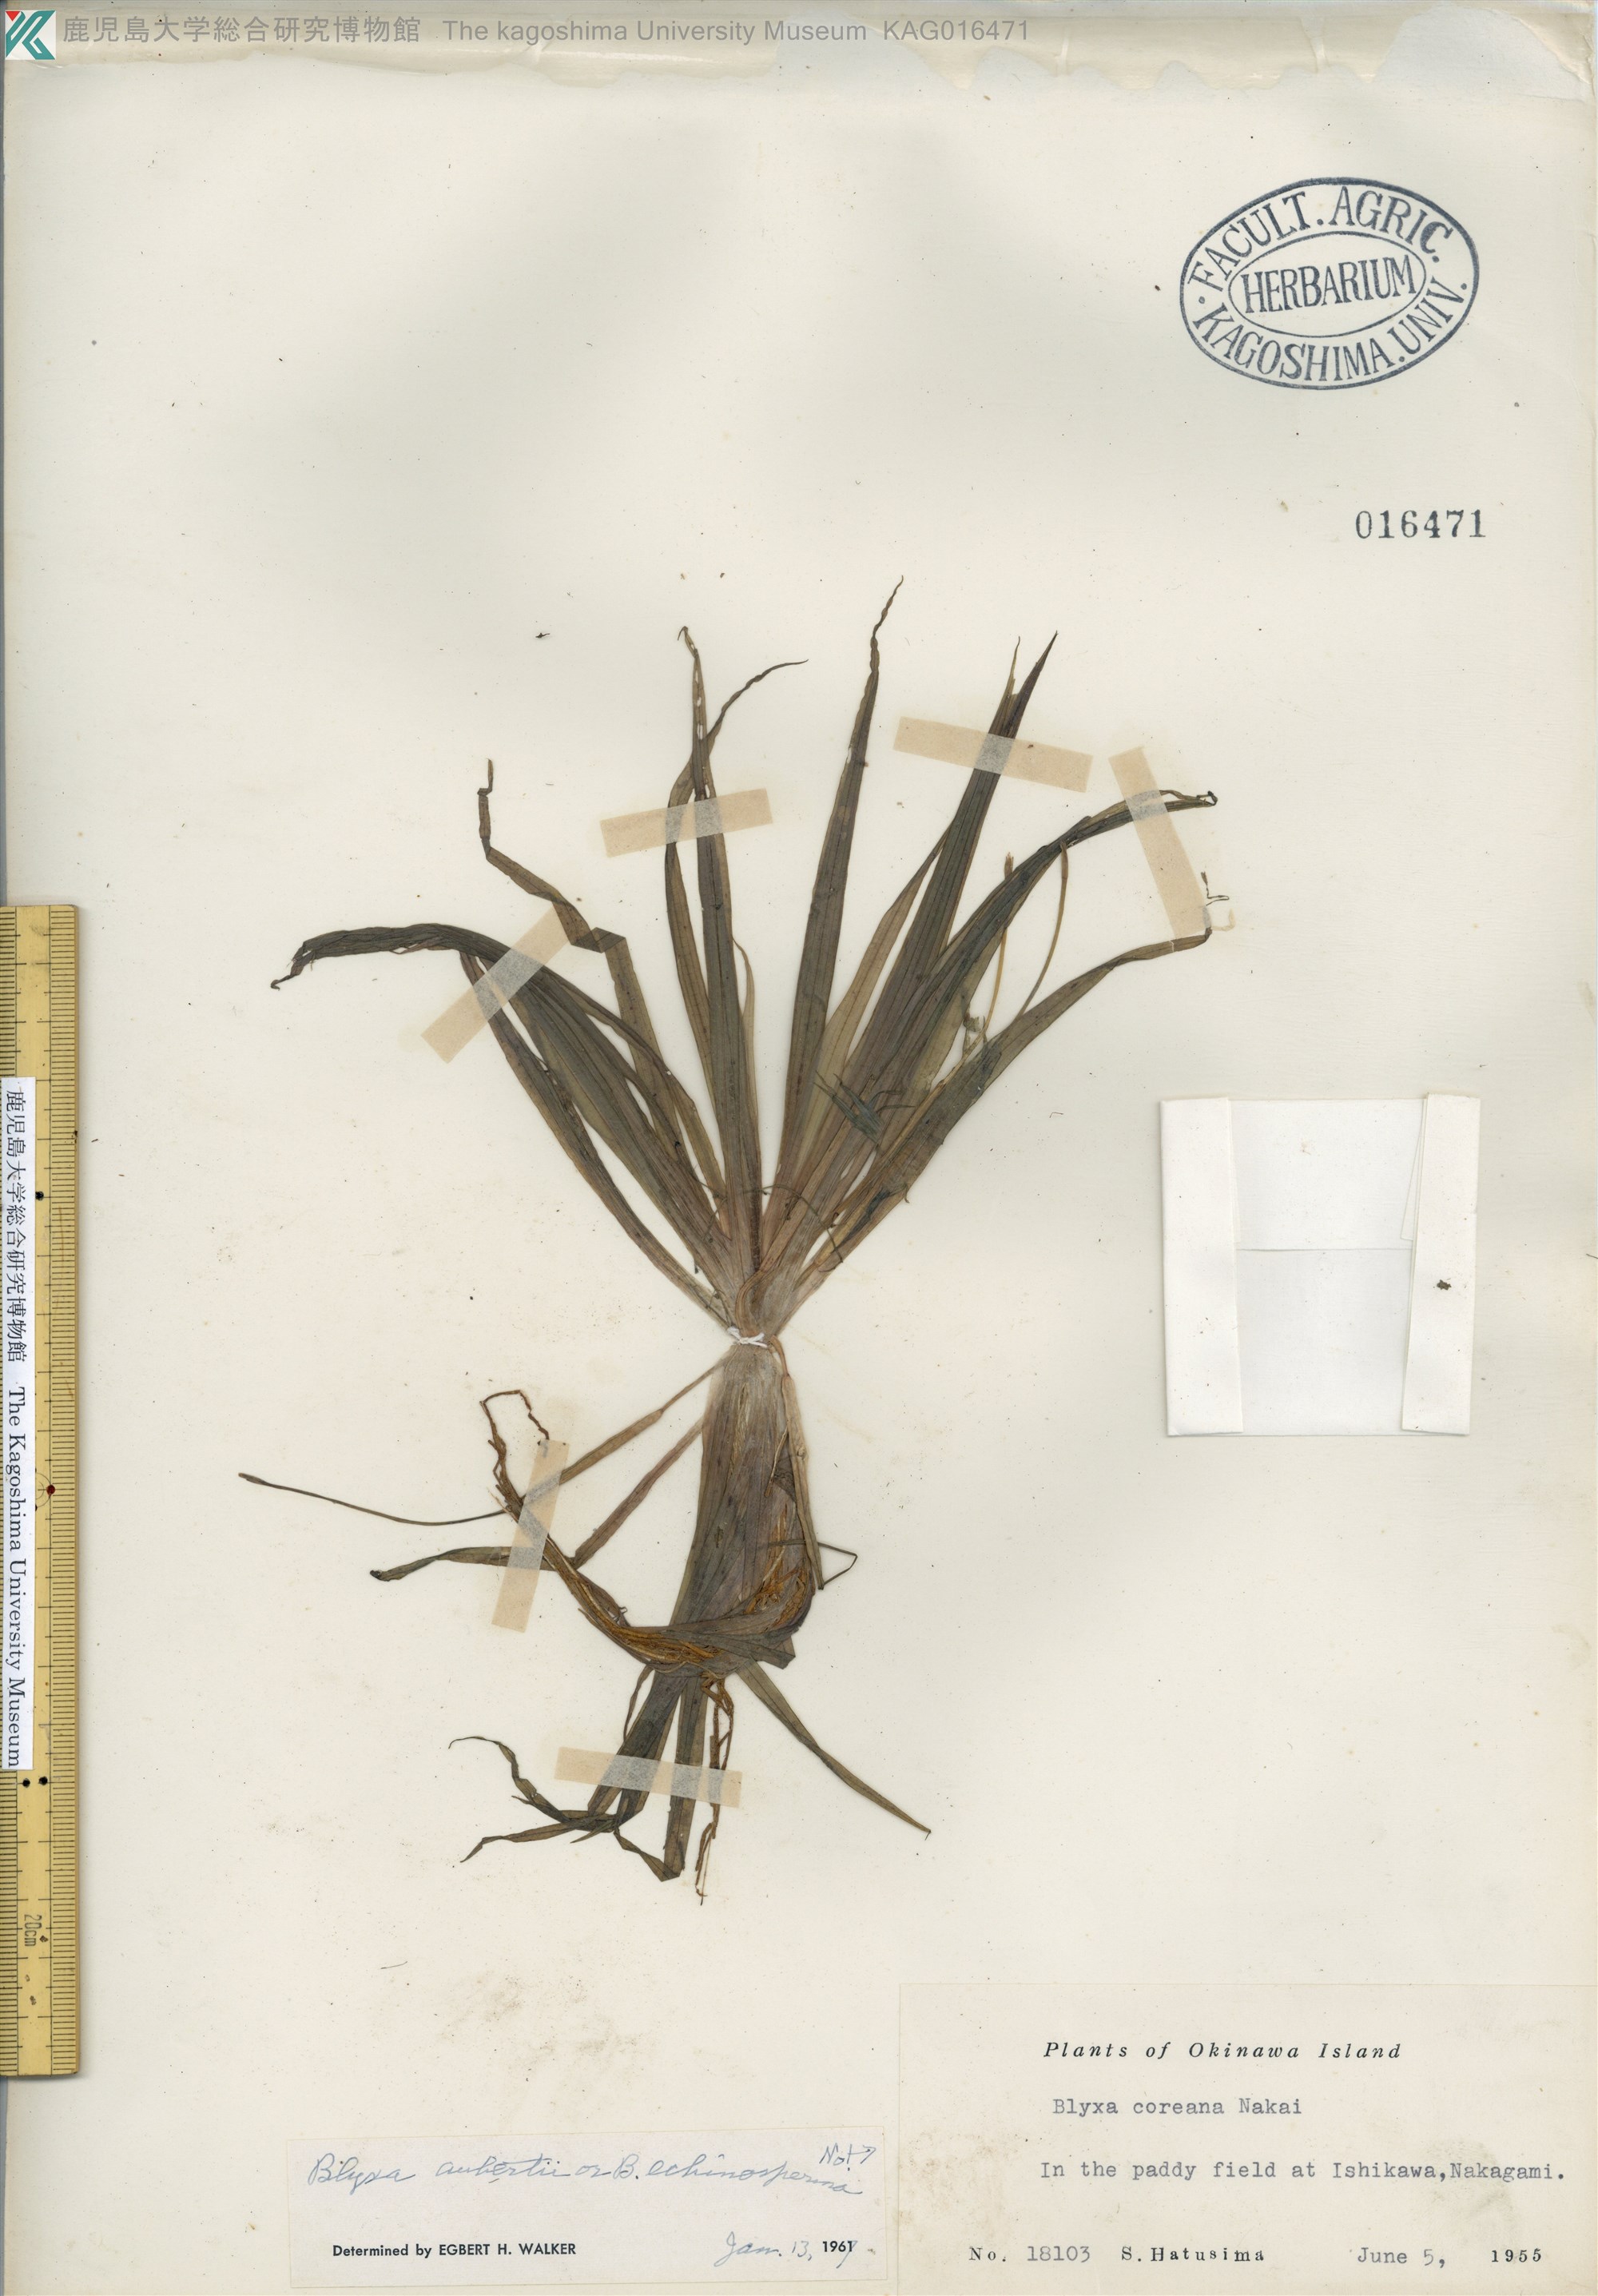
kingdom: Plantae
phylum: Tracheophyta
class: Liliopsida
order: Alismatales
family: Hydrocharitaceae
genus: Blyxa
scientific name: Blyxa aubertii
